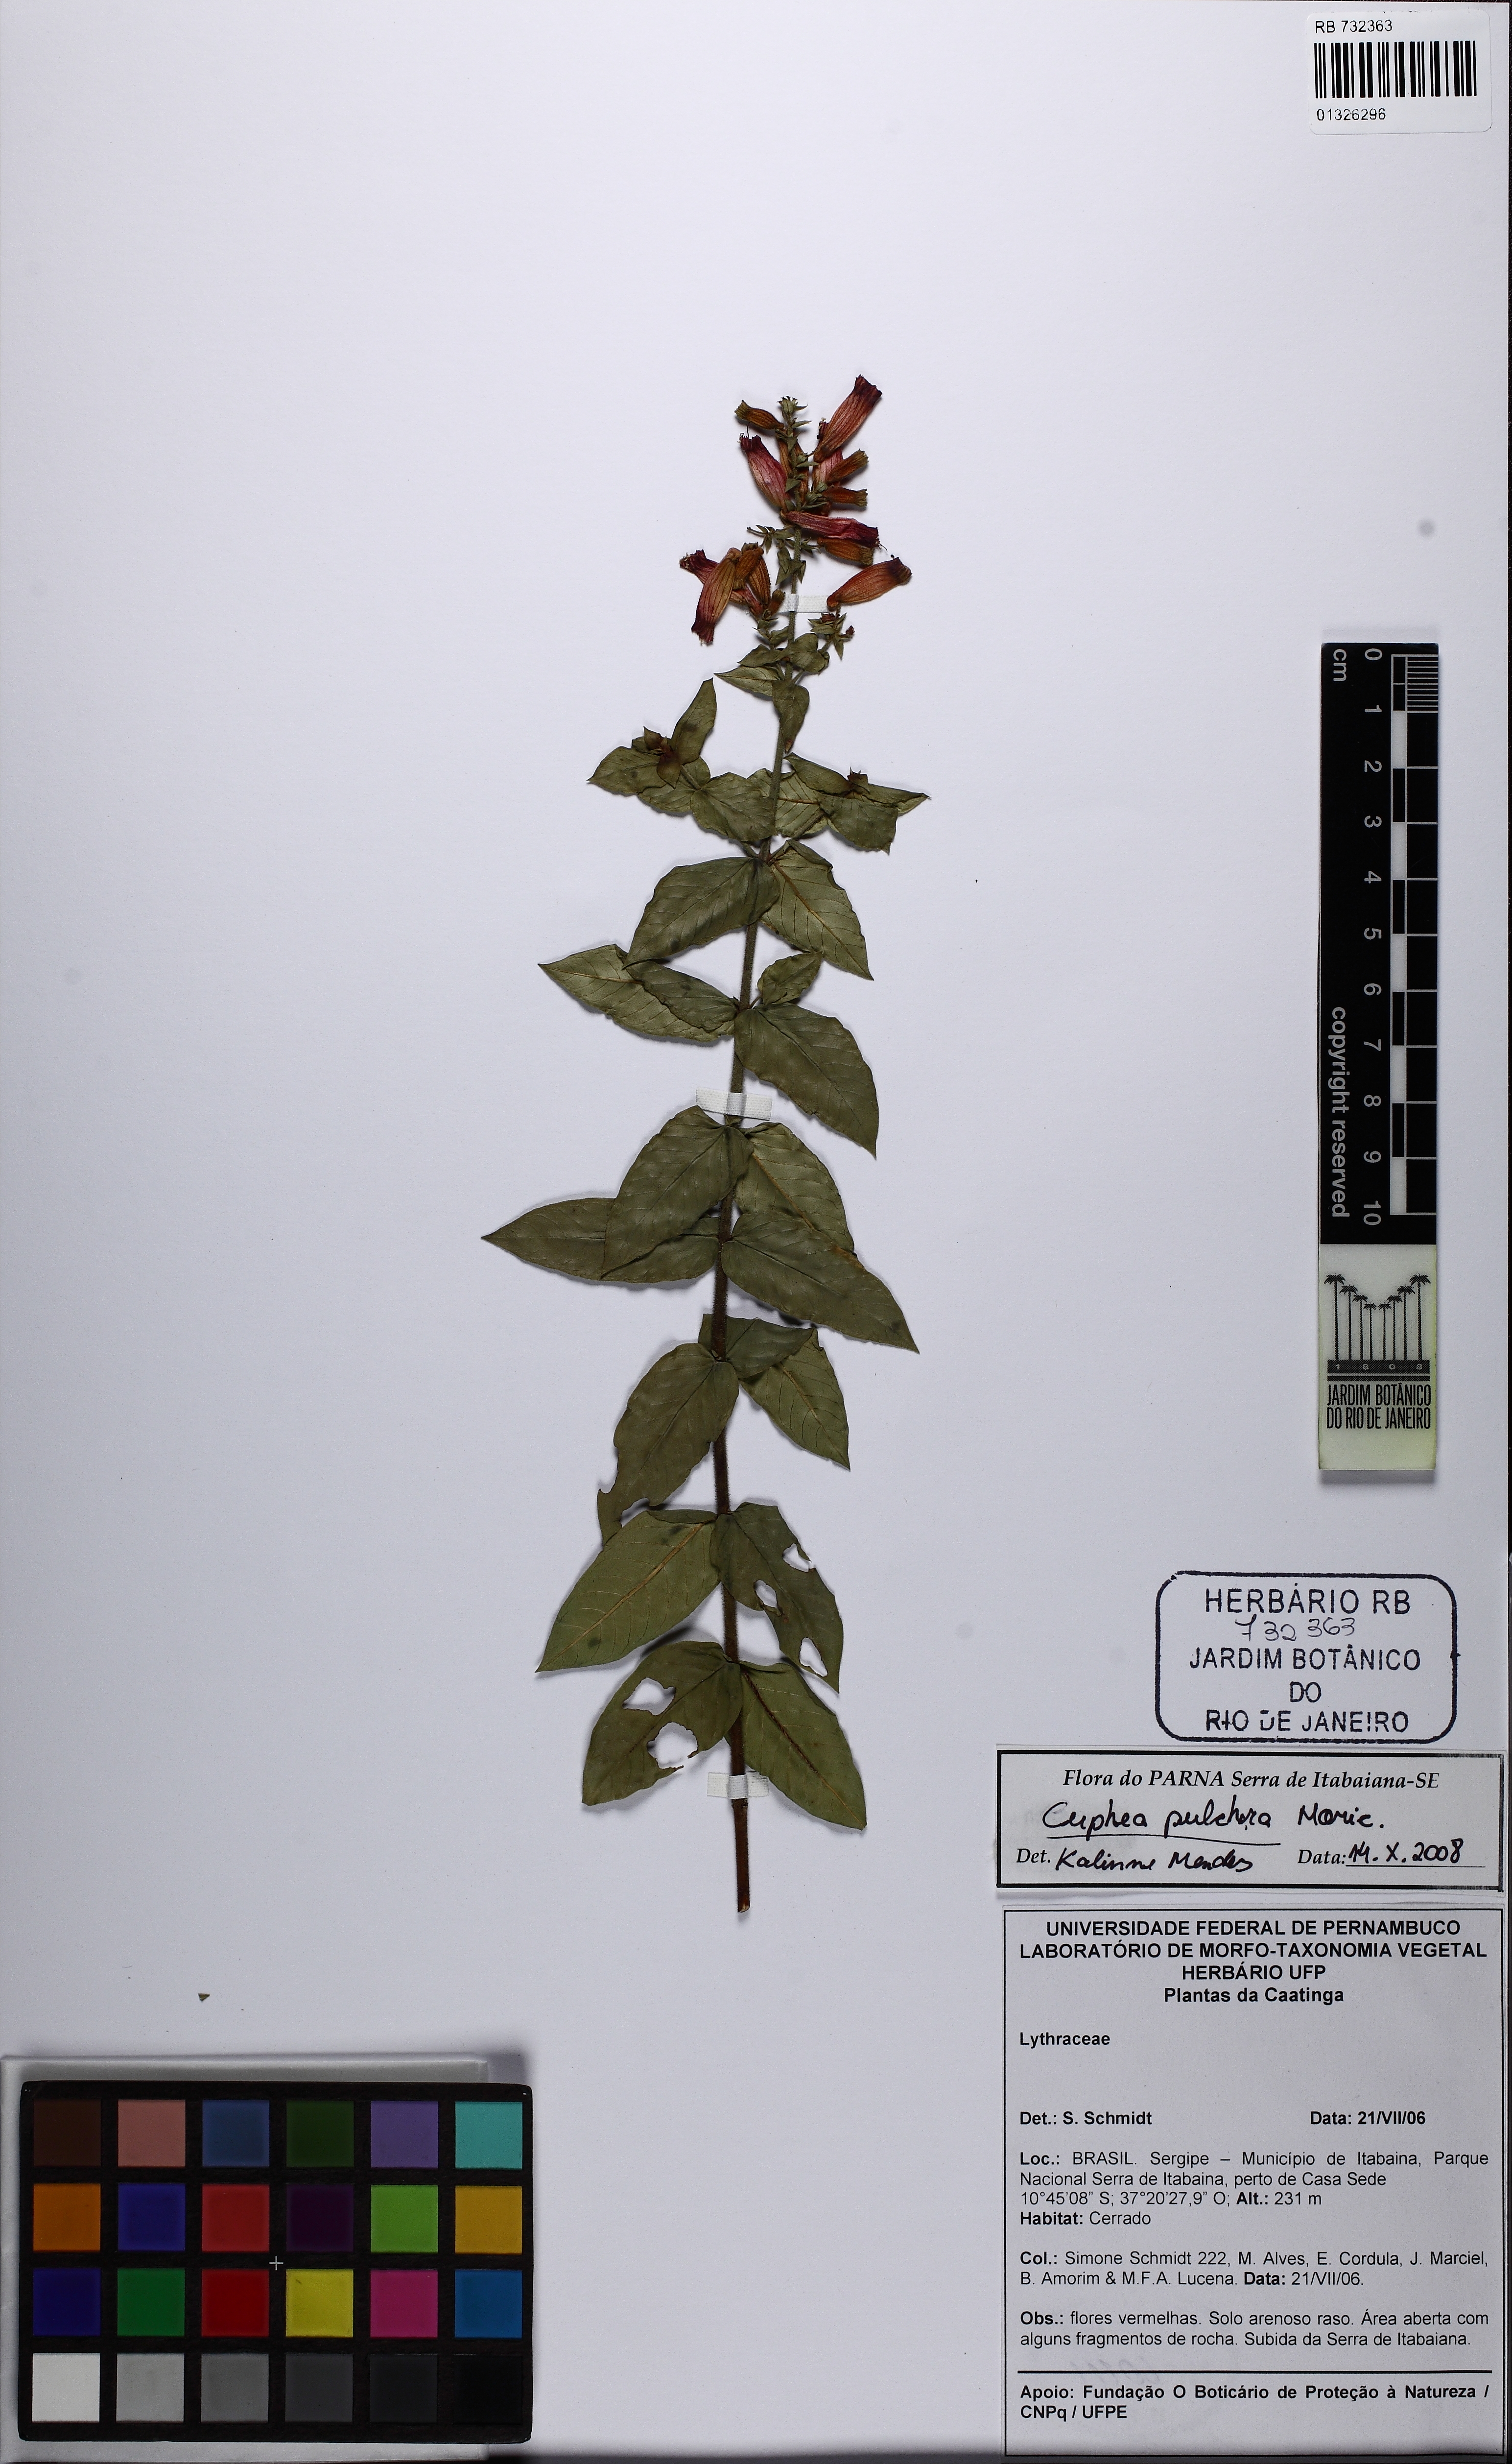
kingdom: Plantae
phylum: Tracheophyta
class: Magnoliopsida
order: Myrtales
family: Lythraceae
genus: Cuphea
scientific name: Cuphea pulchra
